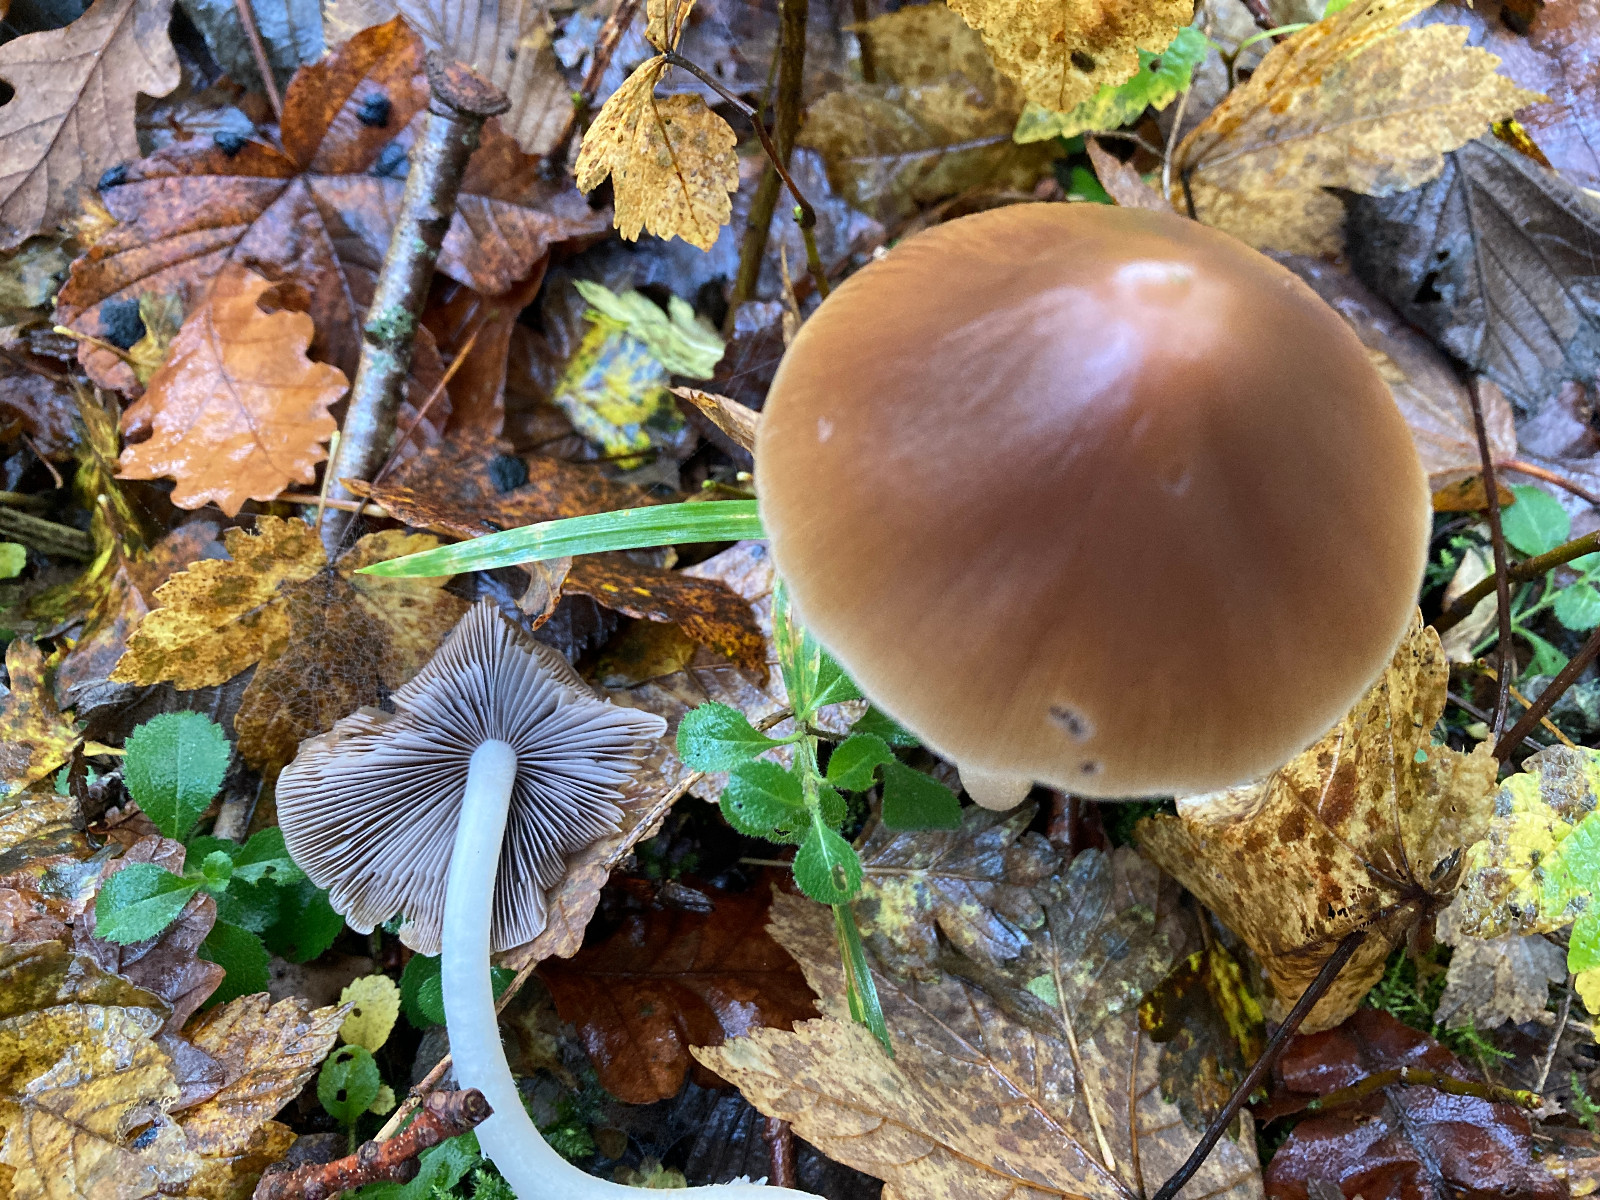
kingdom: Fungi
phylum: Basidiomycota
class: Agaricomycetes
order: Agaricales
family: Psathyrellaceae
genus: Parasola
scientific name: Parasola conopilea
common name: kegle-hjulhat
